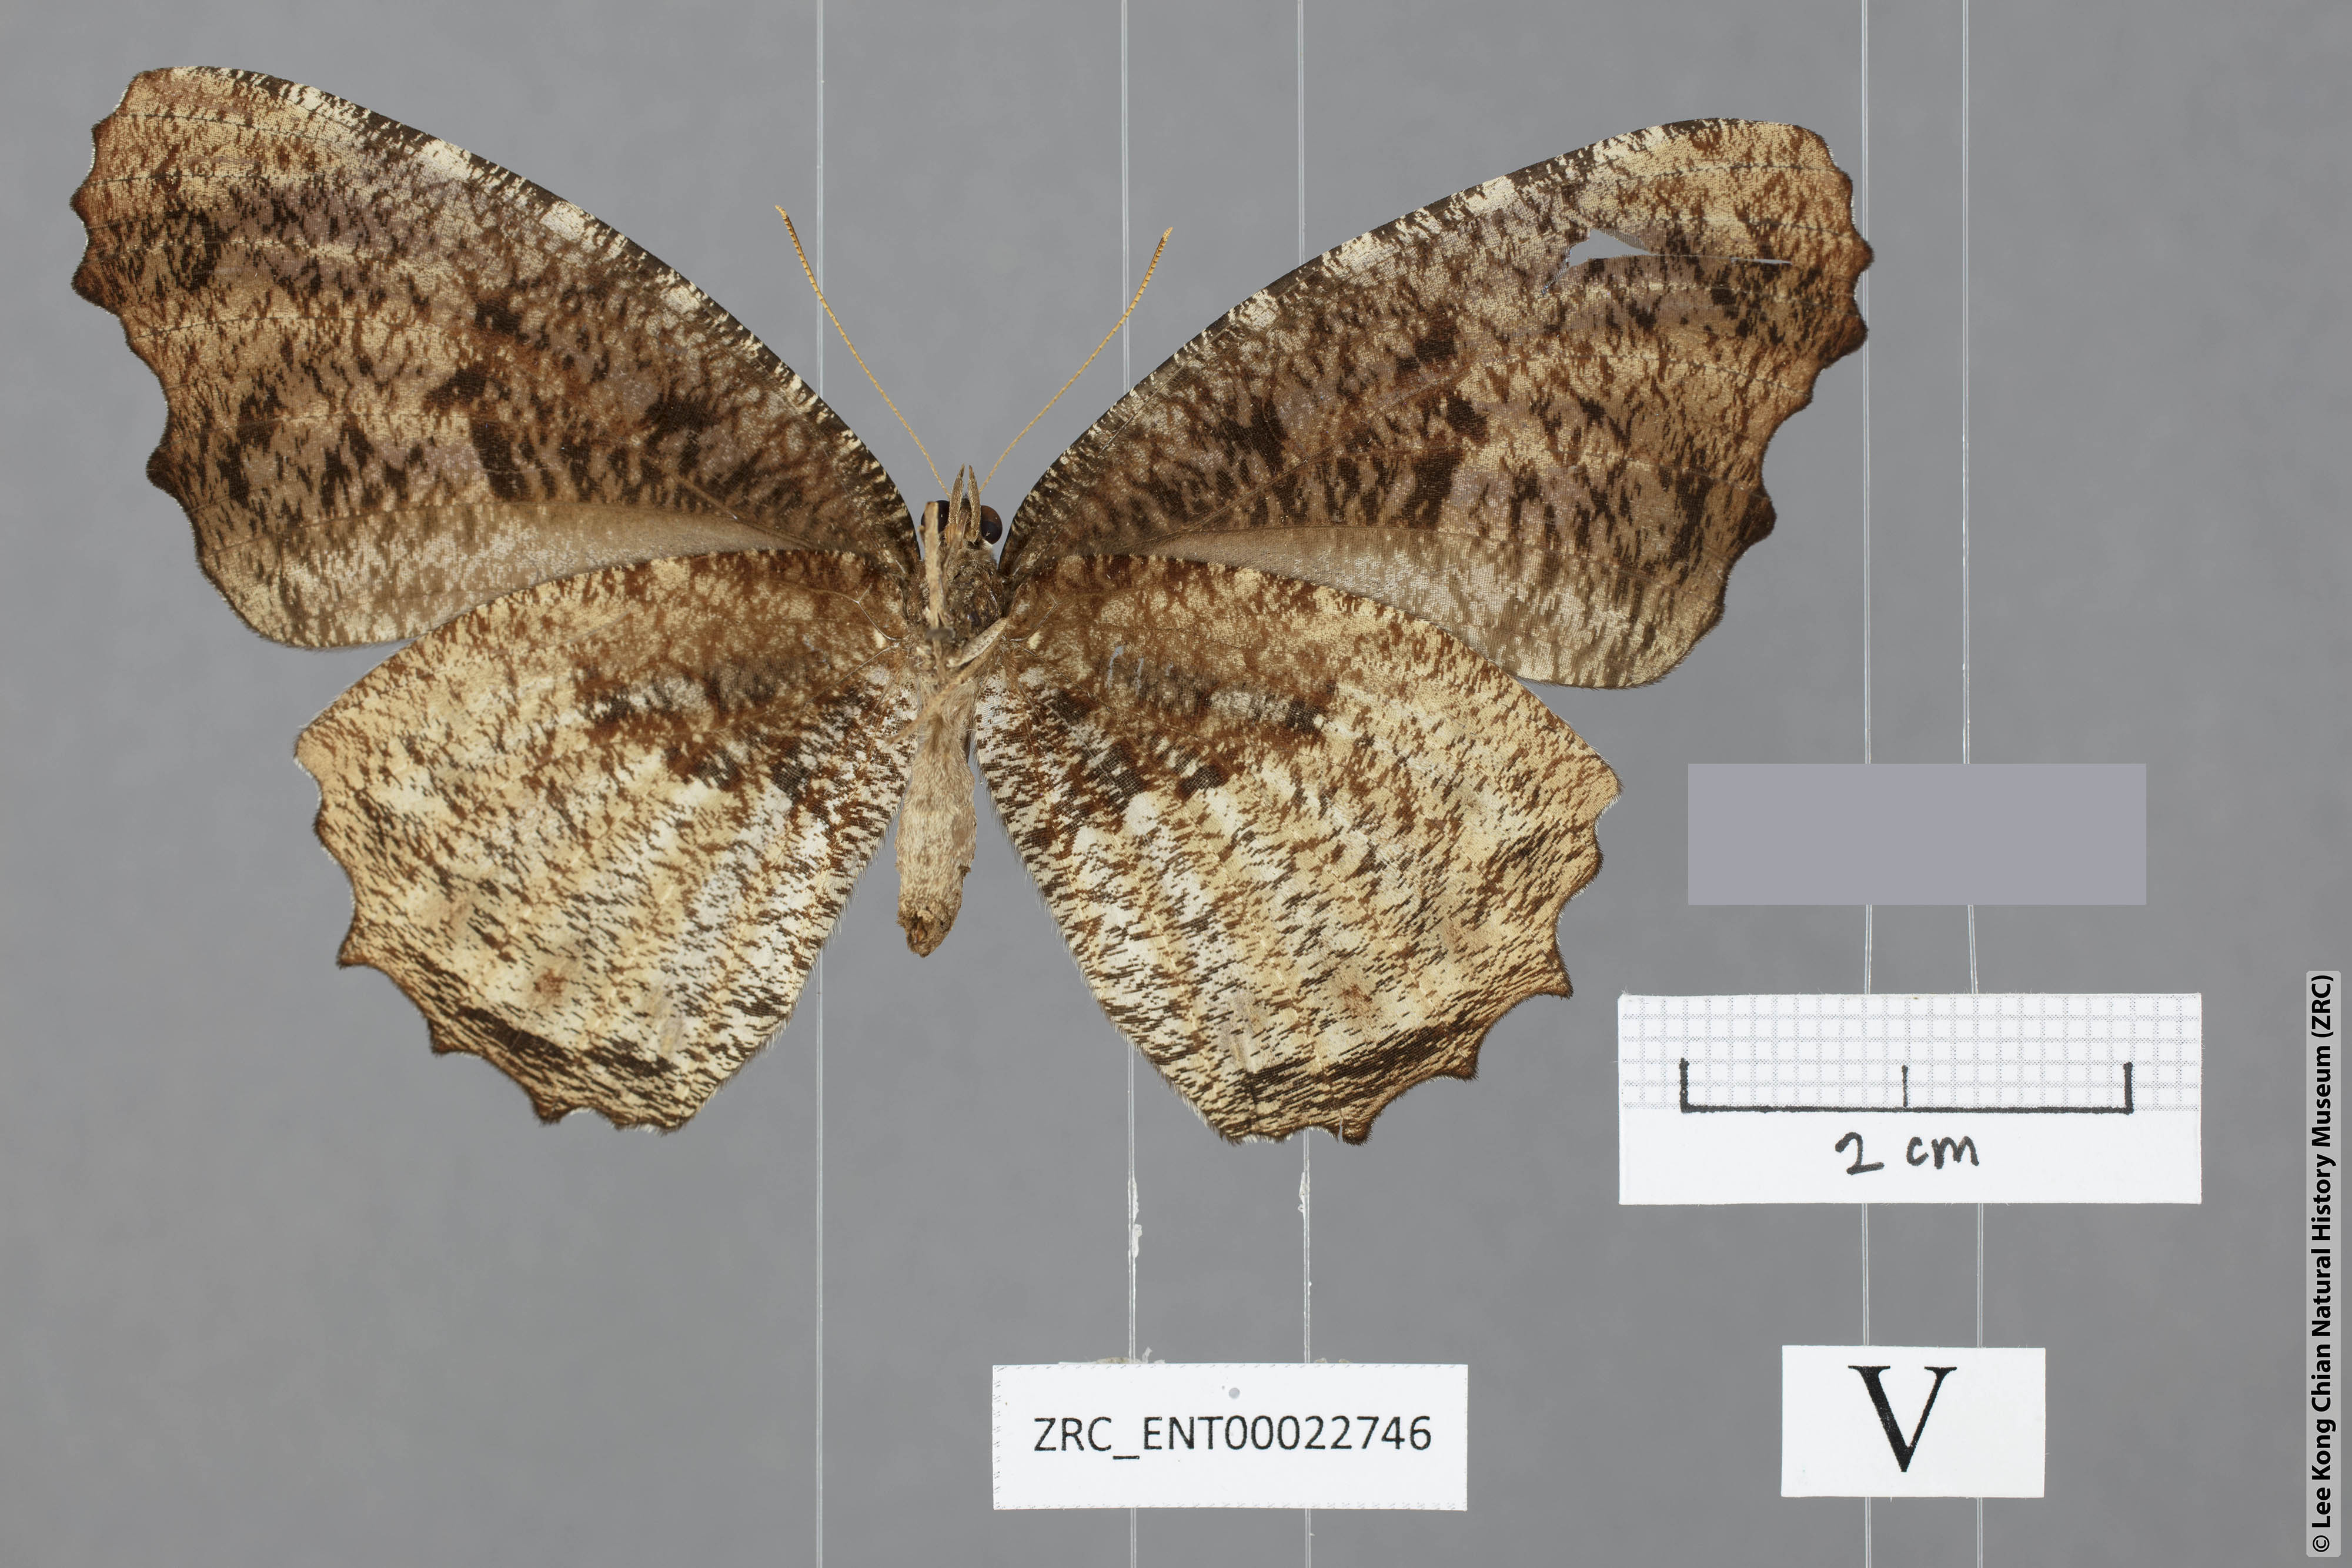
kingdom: Animalia
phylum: Arthropoda
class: Insecta
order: Lepidoptera
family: Nymphalidae
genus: Elymnias
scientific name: Elymnias kamara
